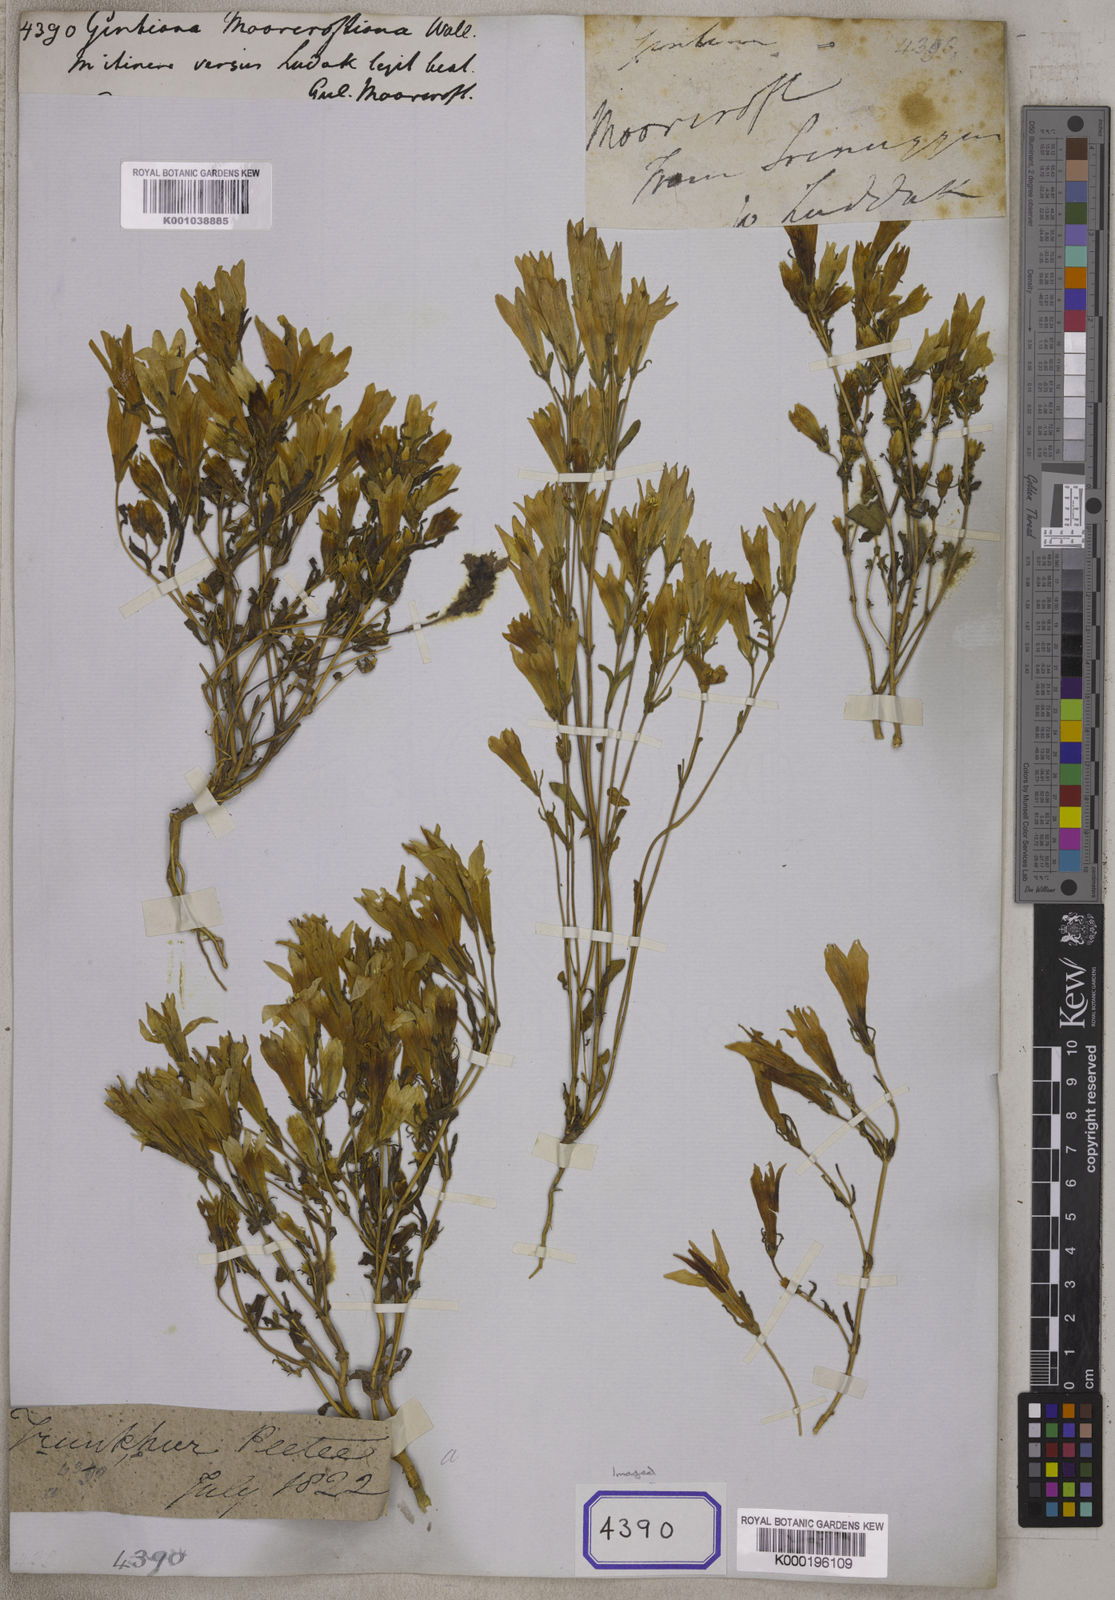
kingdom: Plantae
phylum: Tracheophyta
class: Magnoliopsida
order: Gentianales
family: Gentianaceae
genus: Gentiana
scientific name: Gentiana
